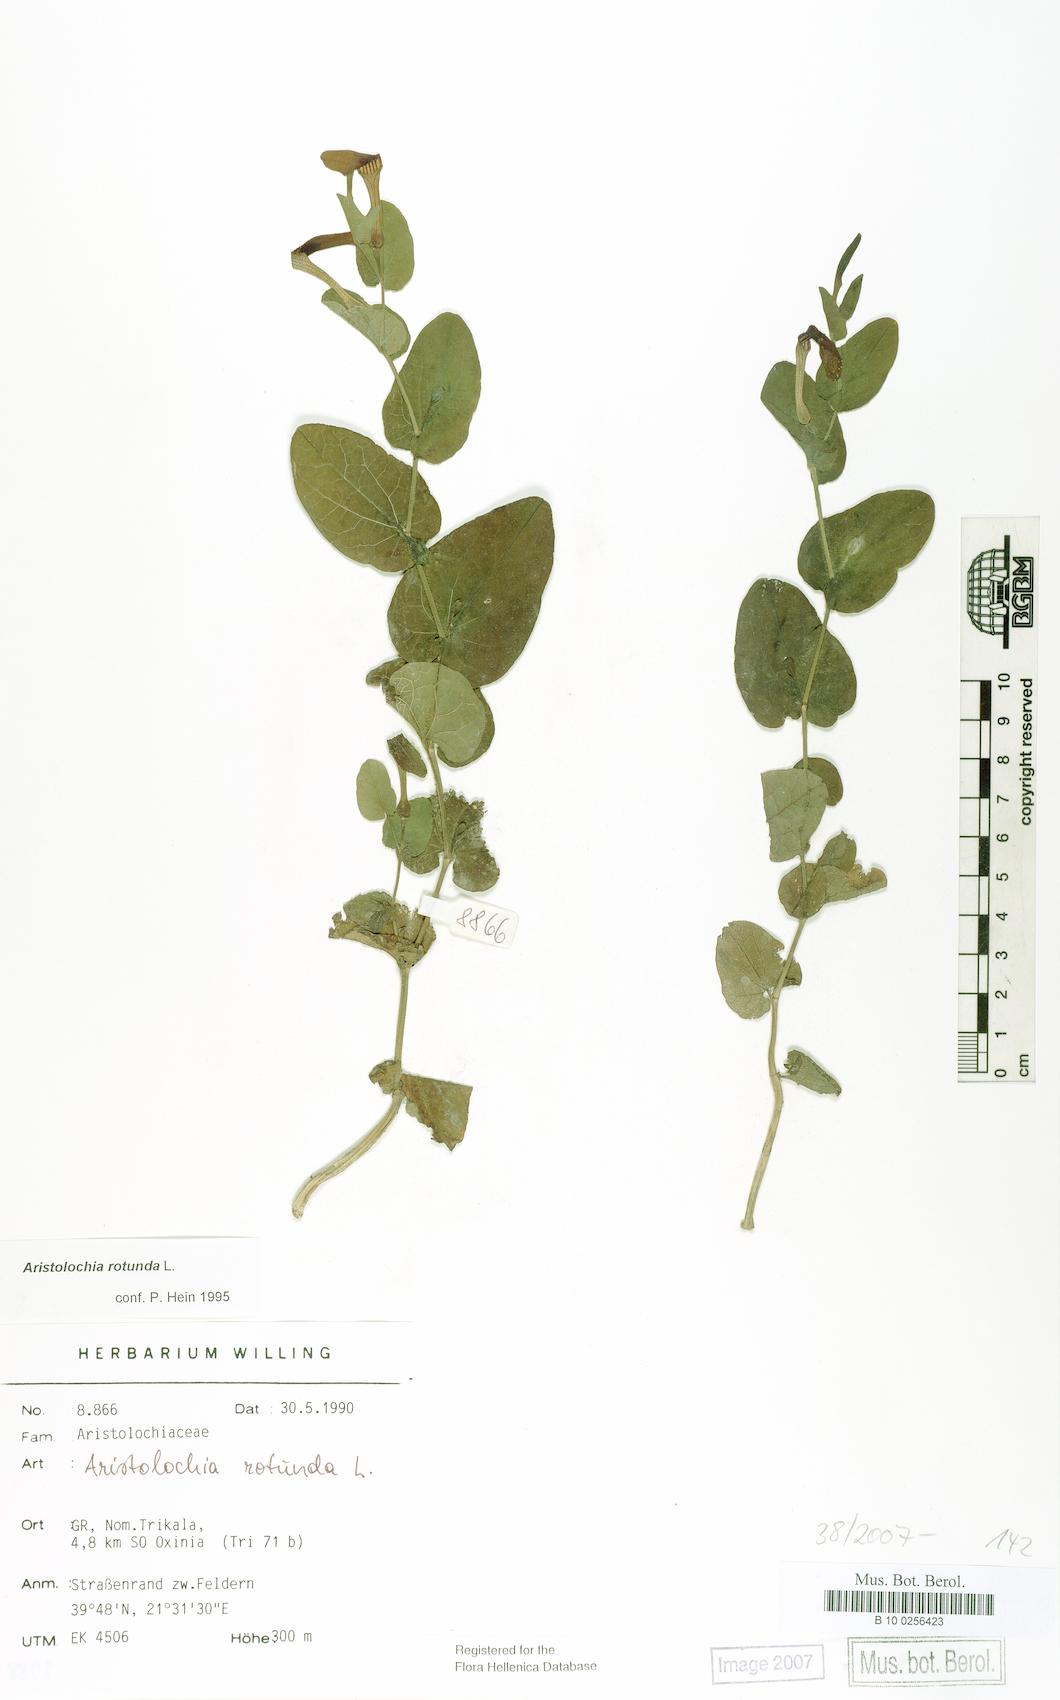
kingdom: Plantae
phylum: Tracheophyta
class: Magnoliopsida
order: Piperales
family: Aristolochiaceae
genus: Aristolochia
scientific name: Aristolochia rotunda
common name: Smearwort
